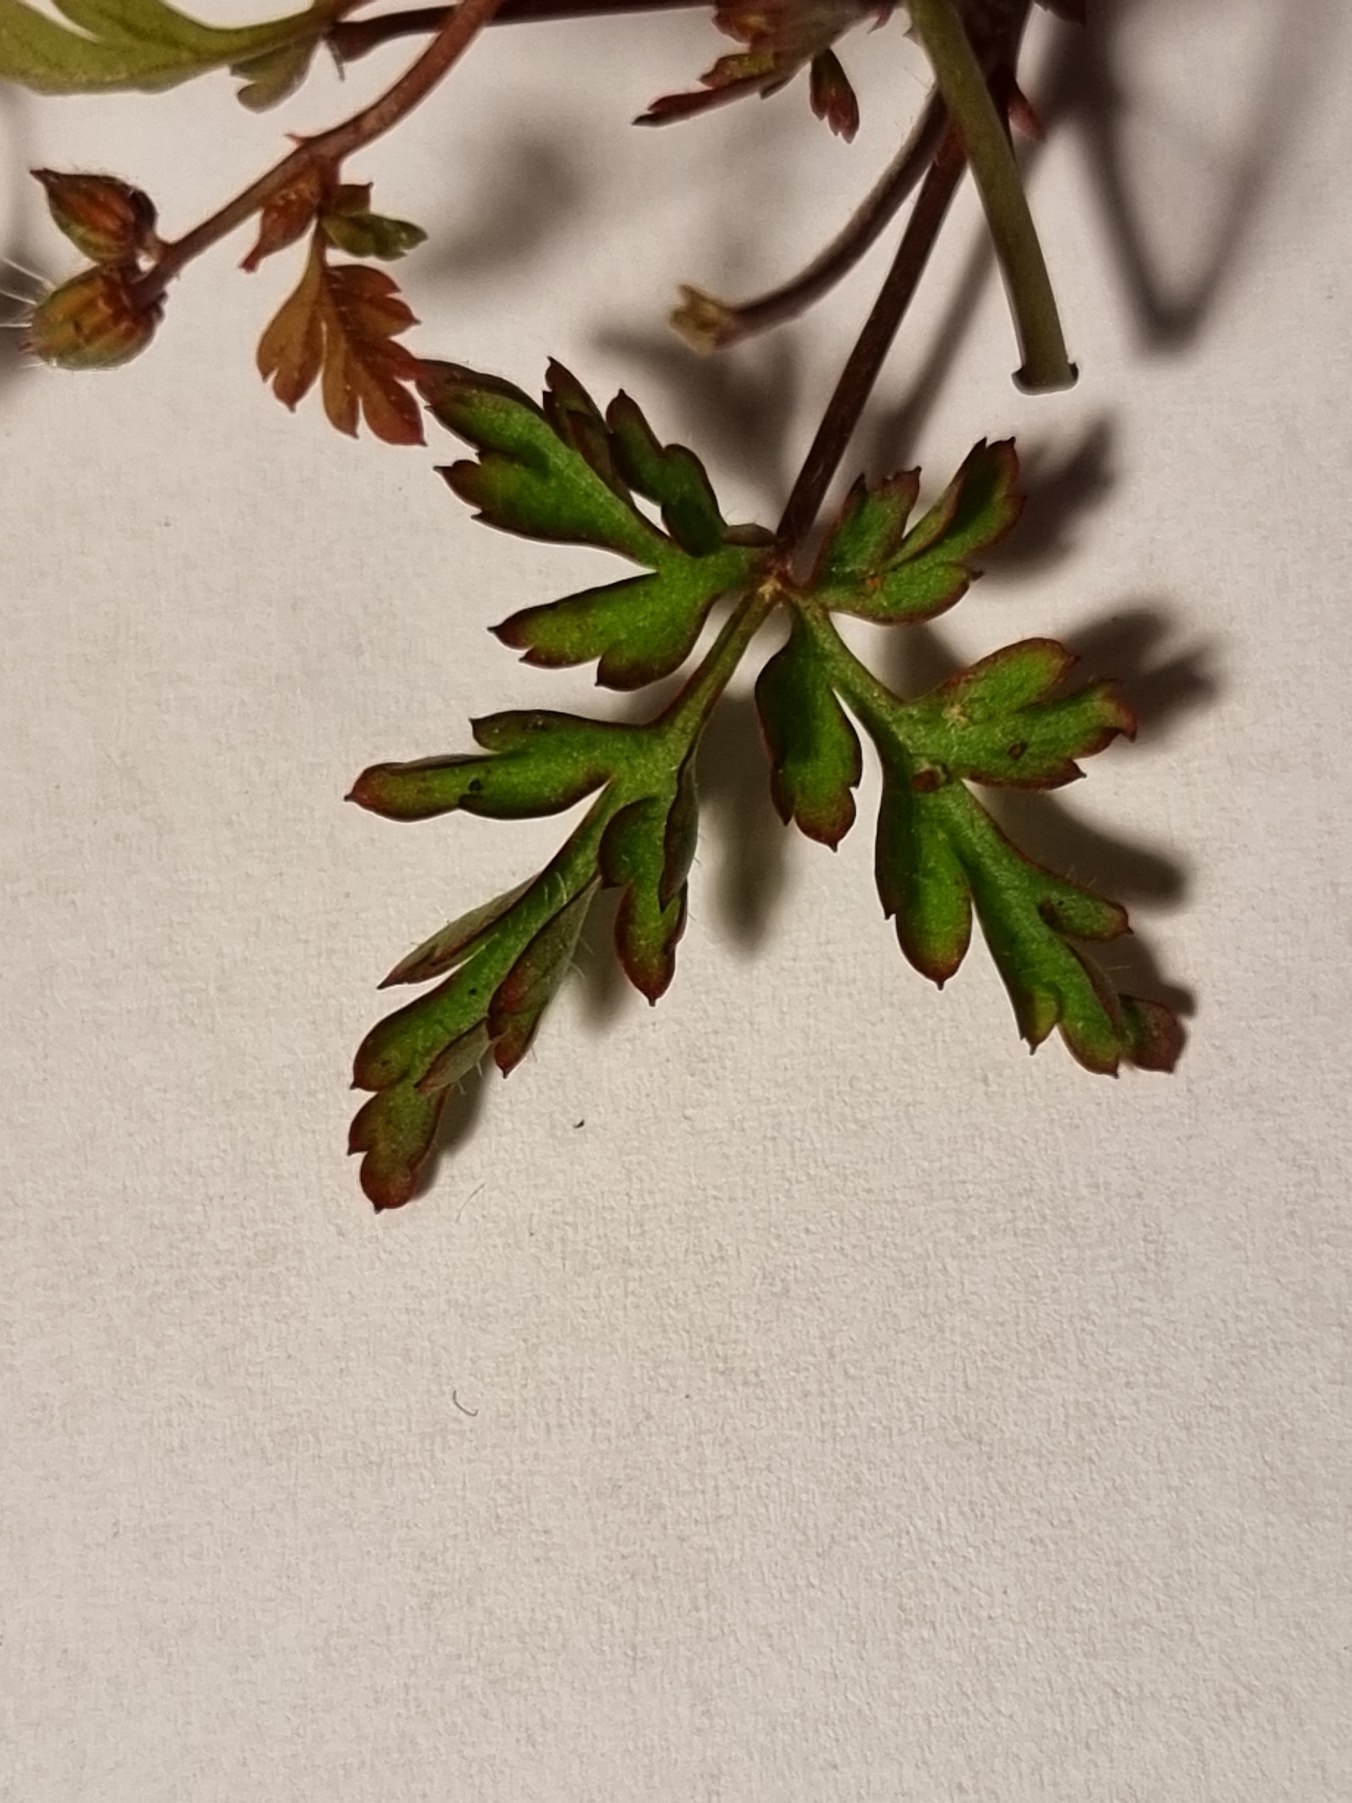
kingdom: Plantae
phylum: Tracheophyta
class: Magnoliopsida
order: Geraniales
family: Geraniaceae
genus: Geranium
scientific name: Geranium robertianum
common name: Stinkende storkenæb
